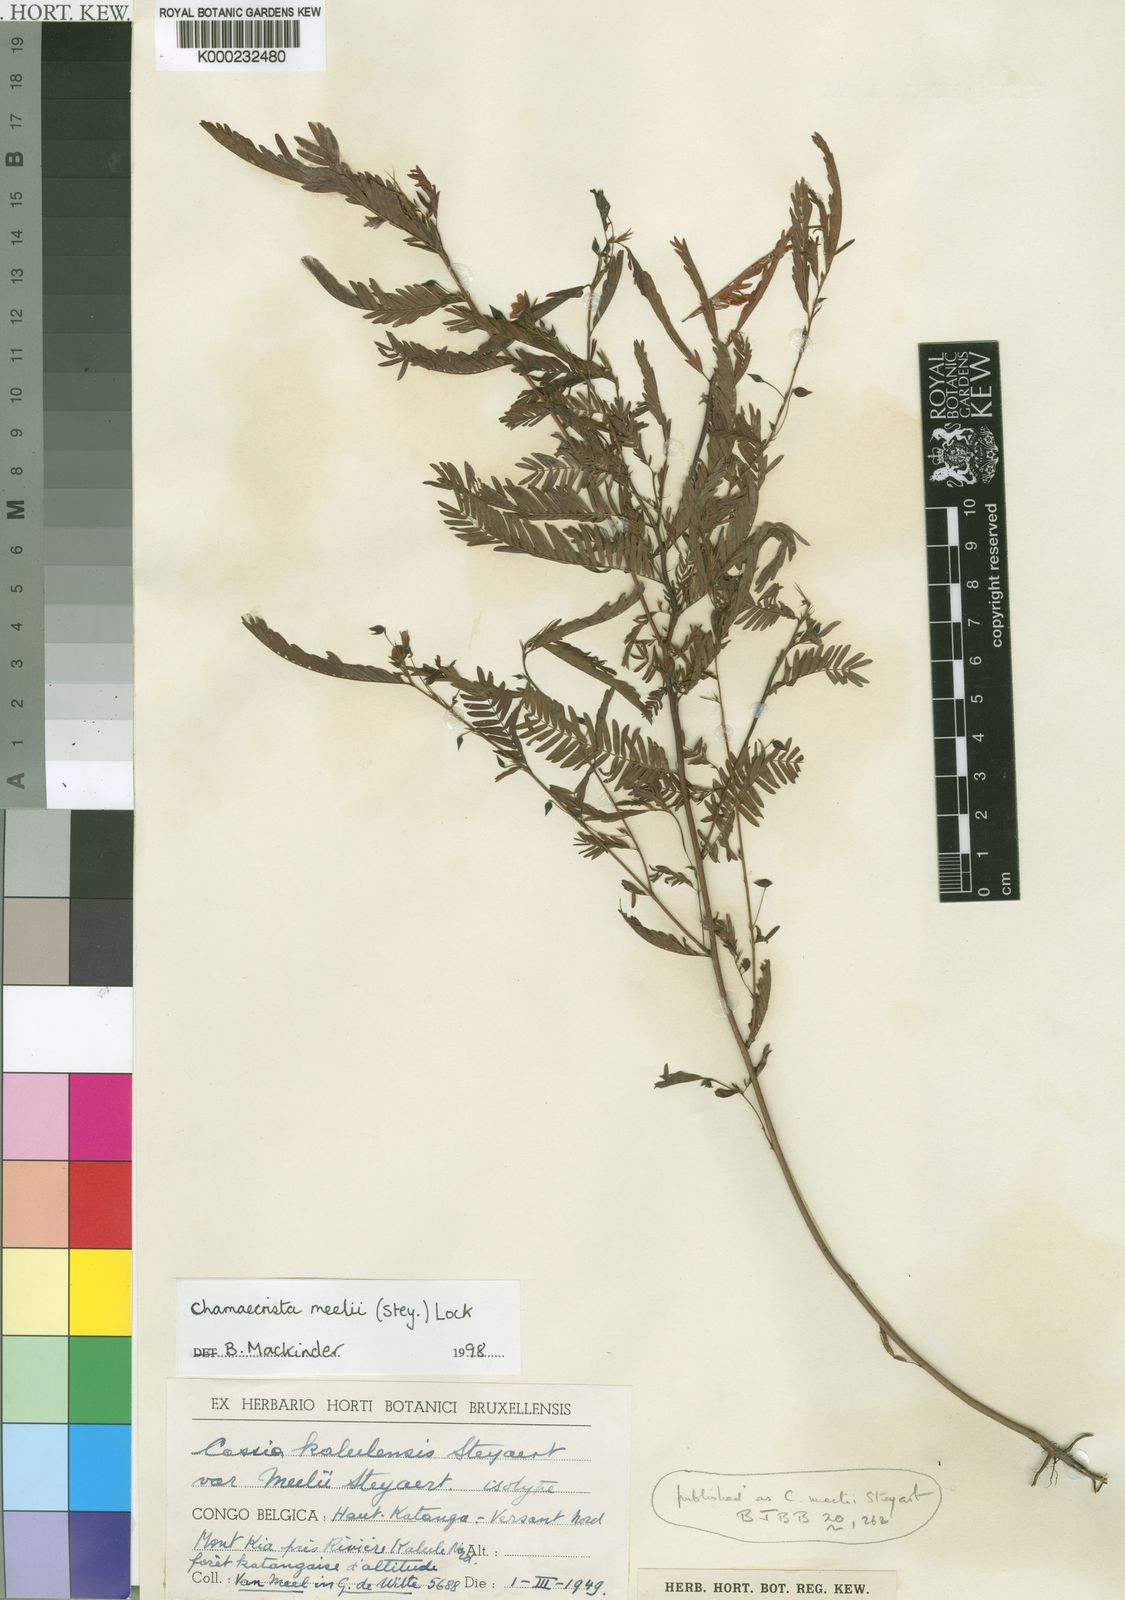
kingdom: Plantae
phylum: Tracheophyta
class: Magnoliopsida
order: Fabales
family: Fabaceae
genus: Chamaecrista
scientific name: Chamaecrista meelii
